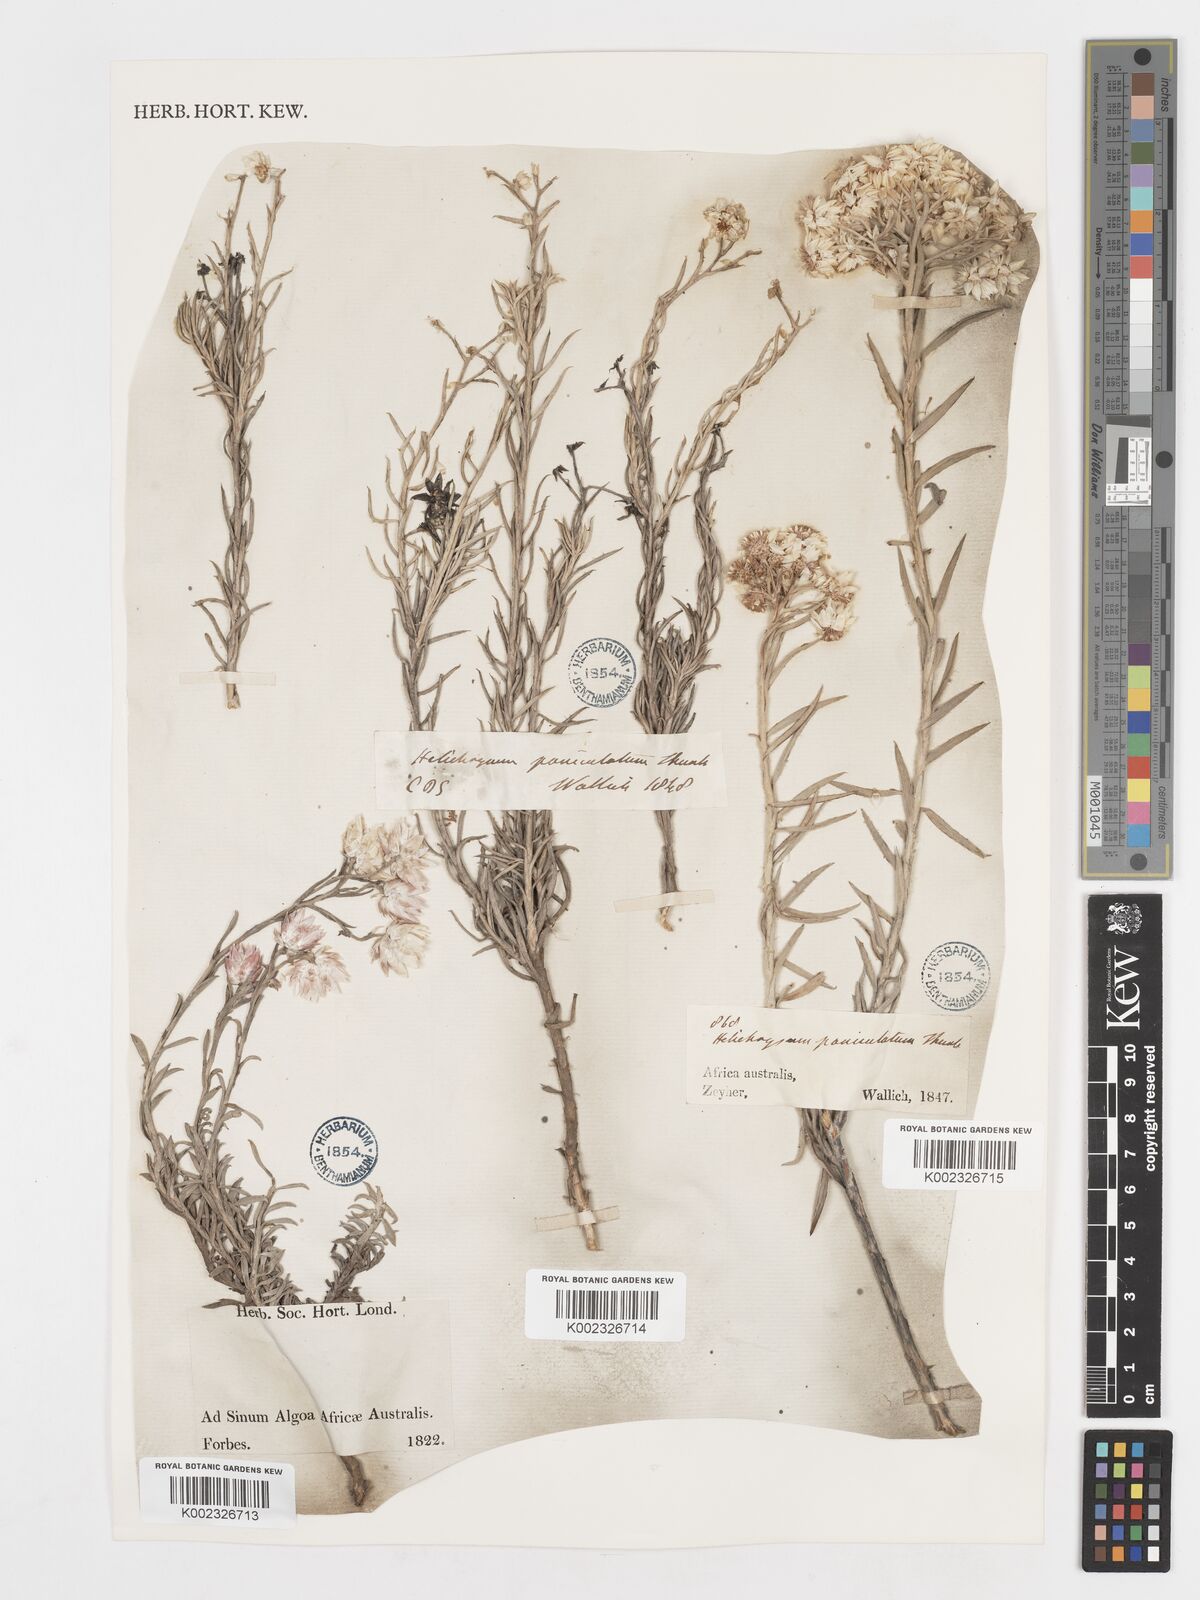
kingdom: Plantae
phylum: Tracheophyta
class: Magnoliopsida
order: Asterales
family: Asteraceae
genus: Achyranthemum
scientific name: Achyranthemum paniculatum
